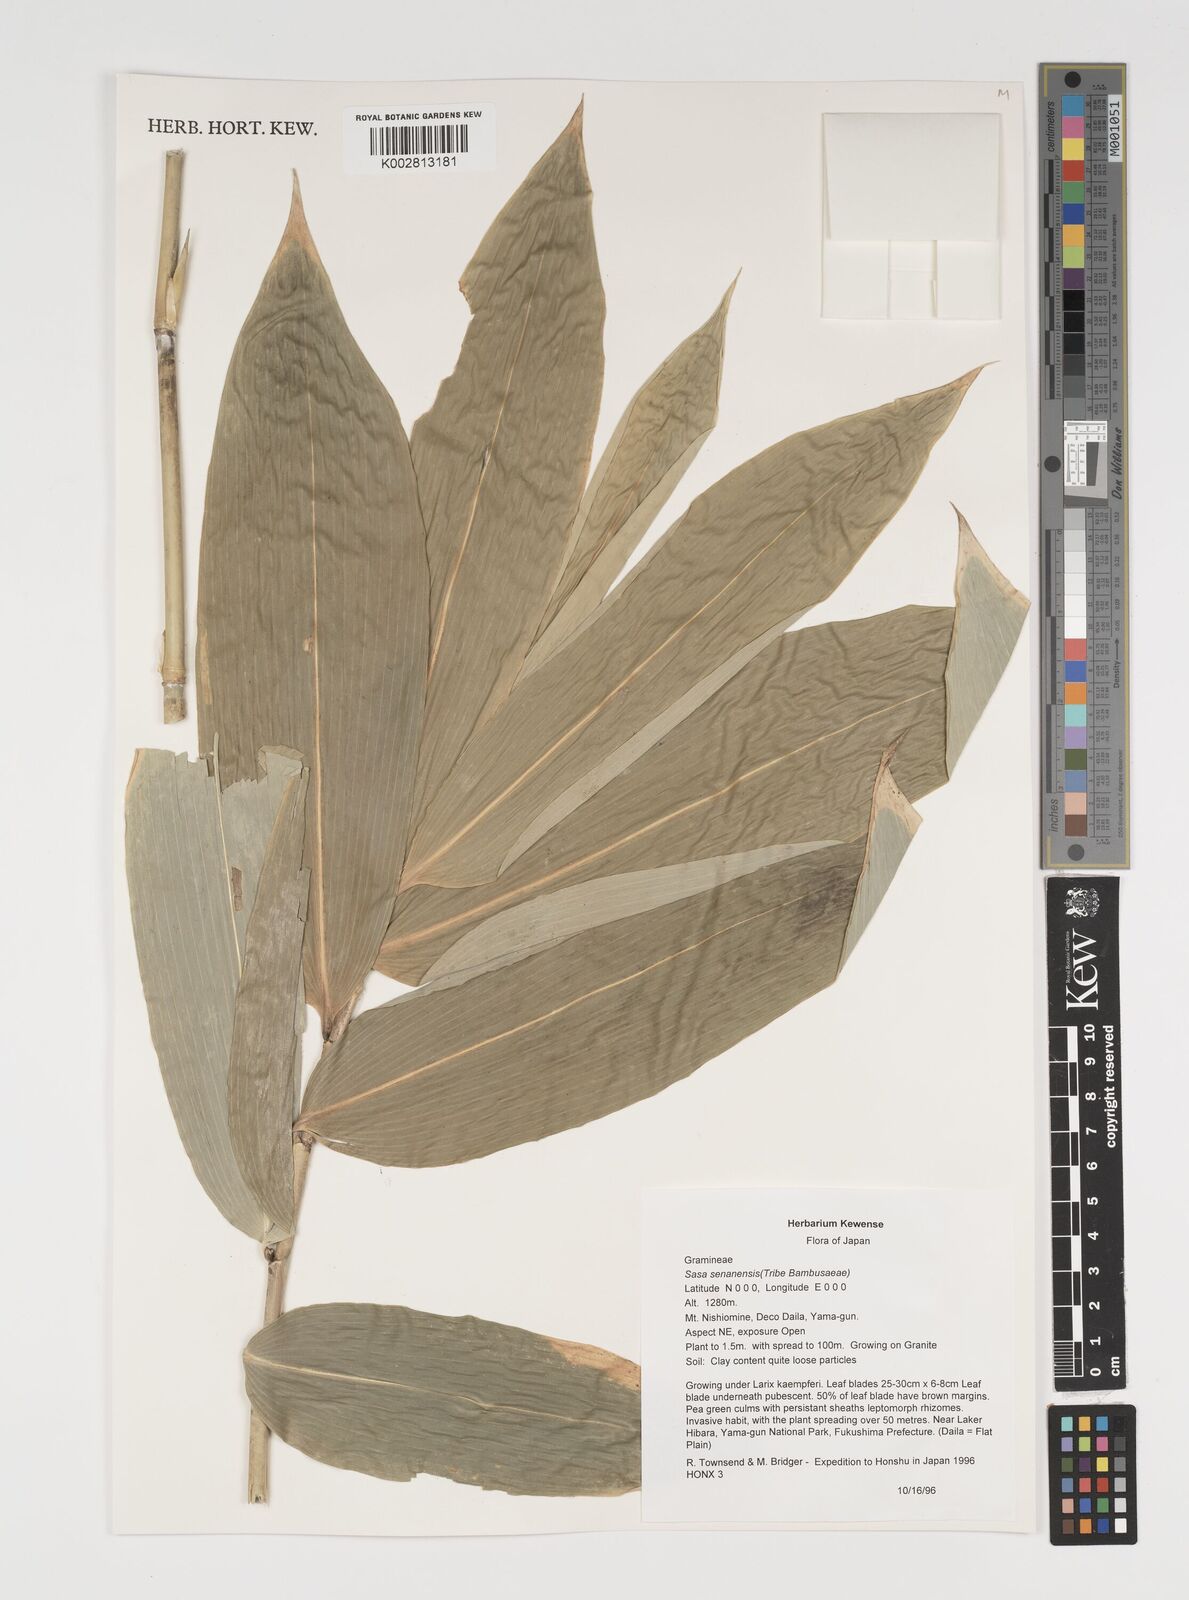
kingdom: Plantae
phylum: Tracheophyta
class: Liliopsida
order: Poales
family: Poaceae
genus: Sasa
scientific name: Sasa senanensis
